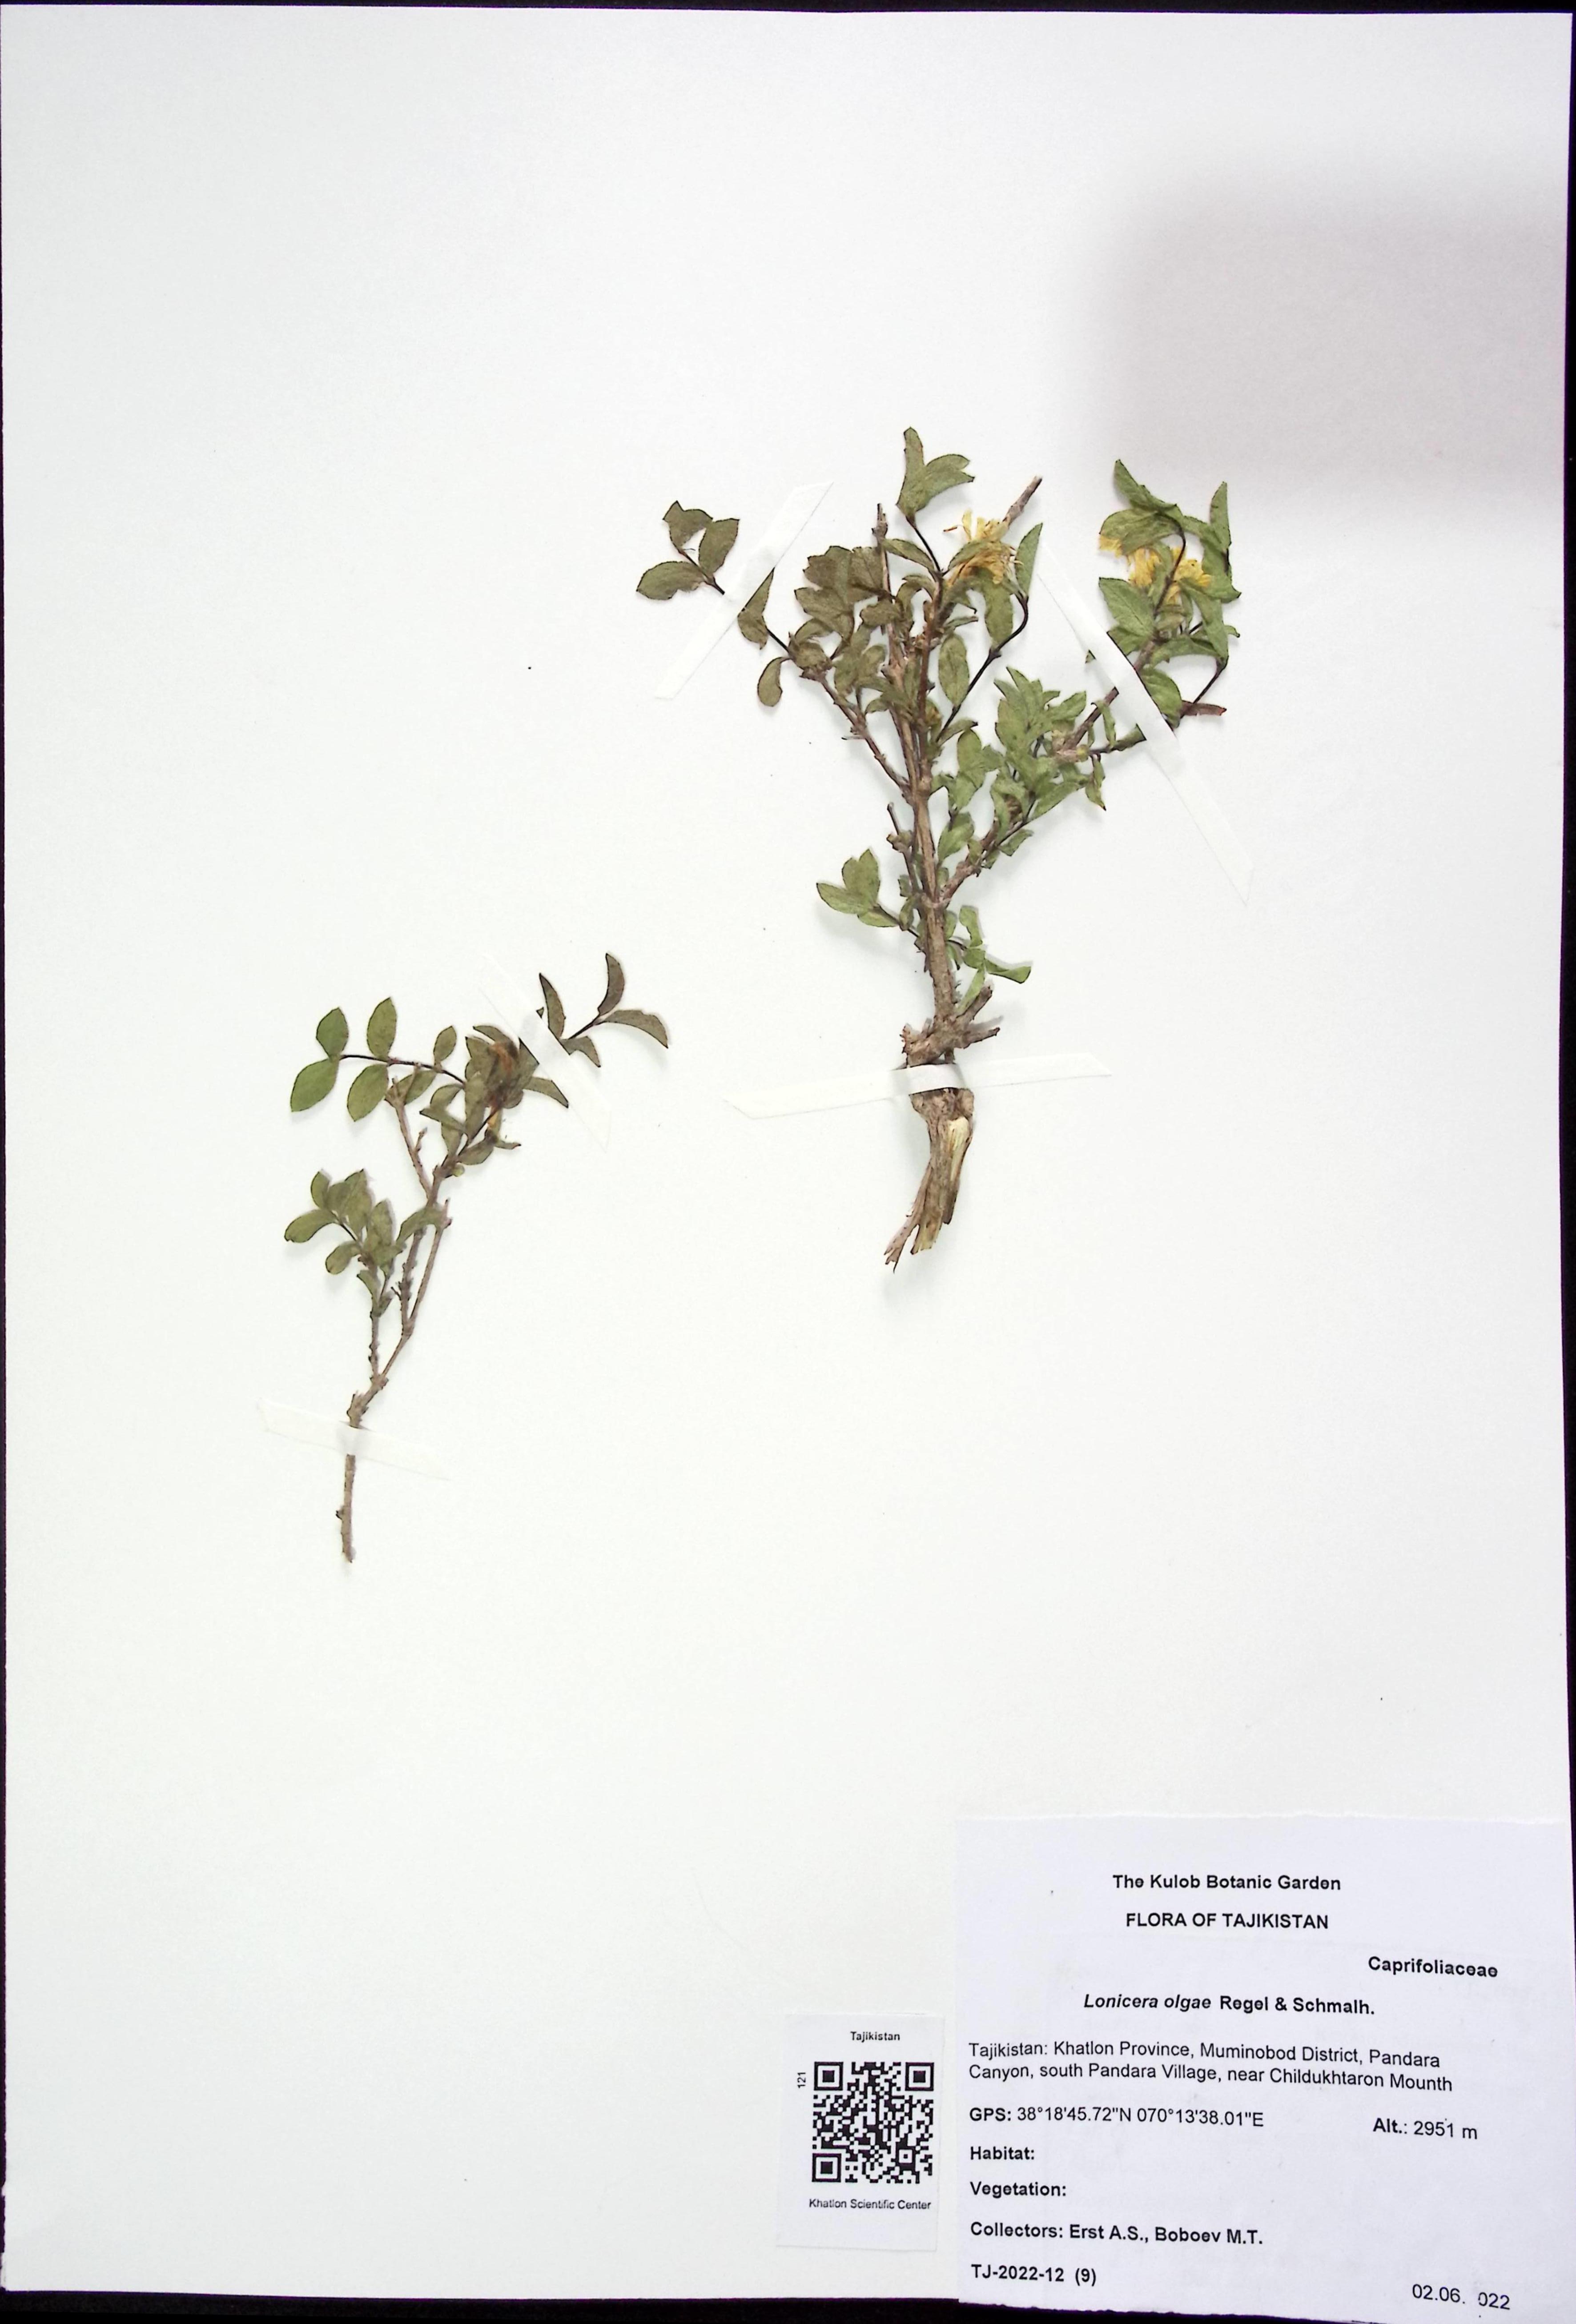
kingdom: Plantae
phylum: Tracheophyta
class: Magnoliopsida
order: Dipsacales
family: Caprifoliaceae
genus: Lonicera
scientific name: Lonicera olgae
